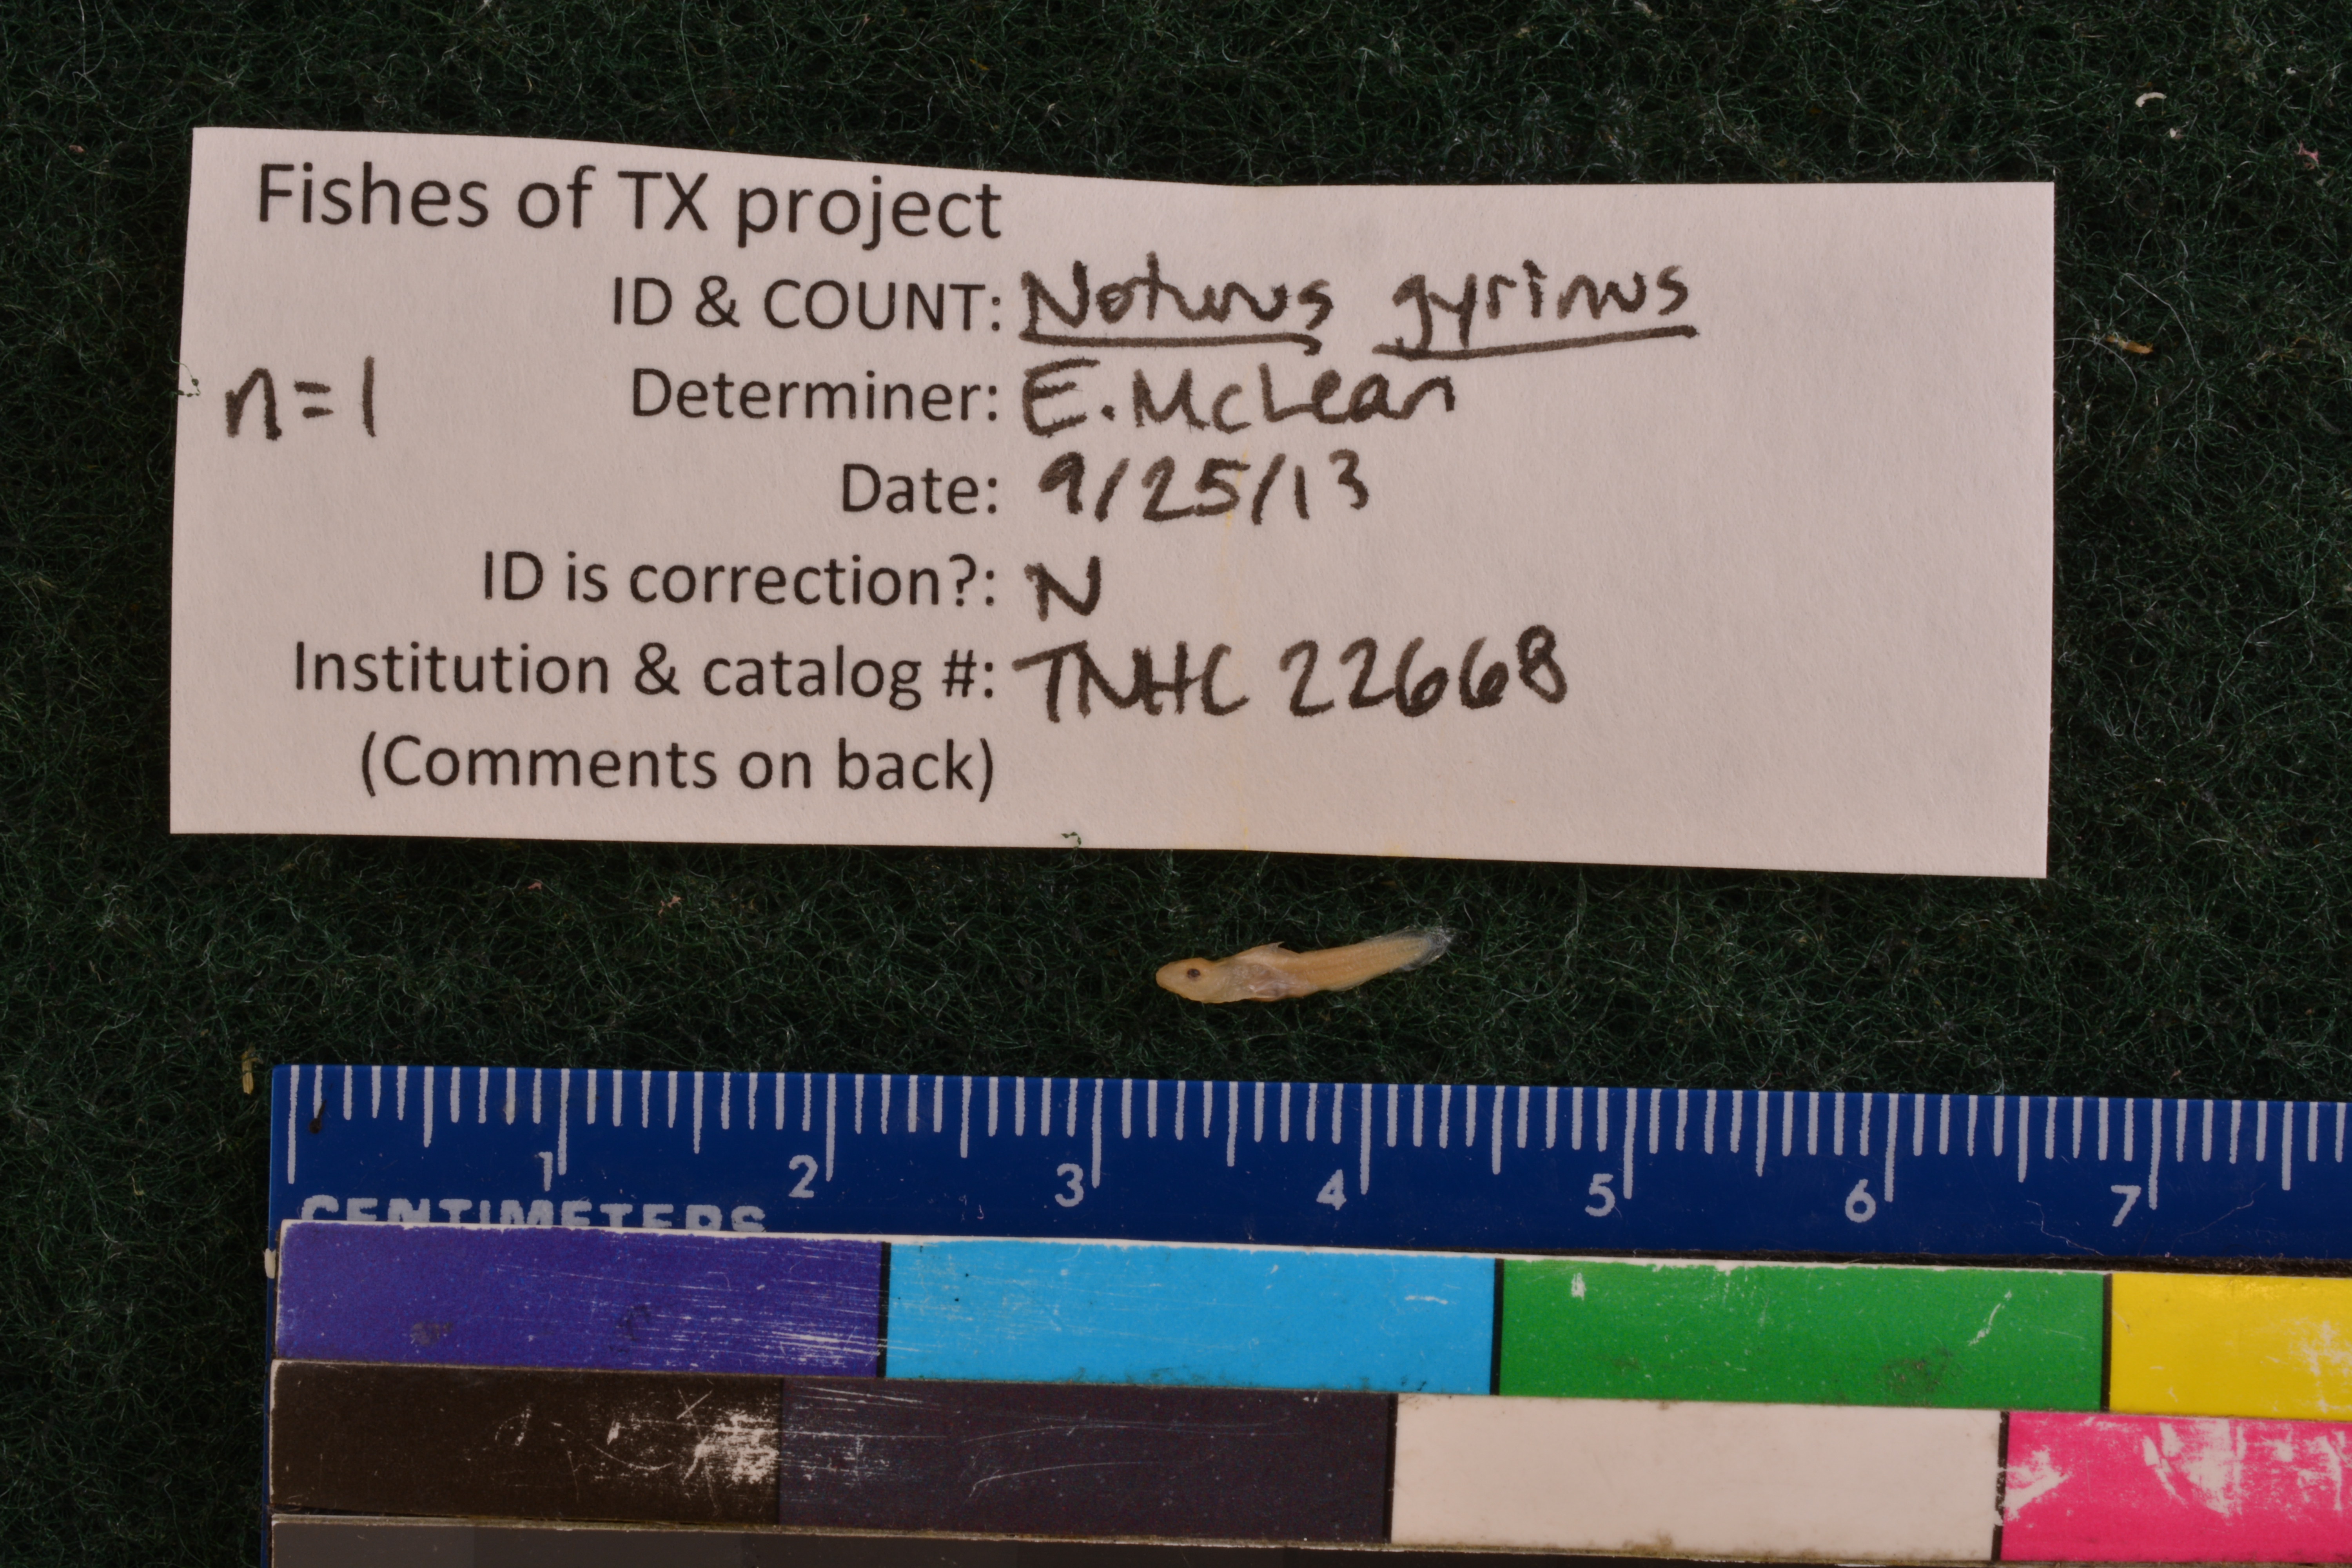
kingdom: Animalia
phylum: Chordata
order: Siluriformes
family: Ictaluridae
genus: Noturus
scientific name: Noturus gyrinus
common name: Tadpole madtom
